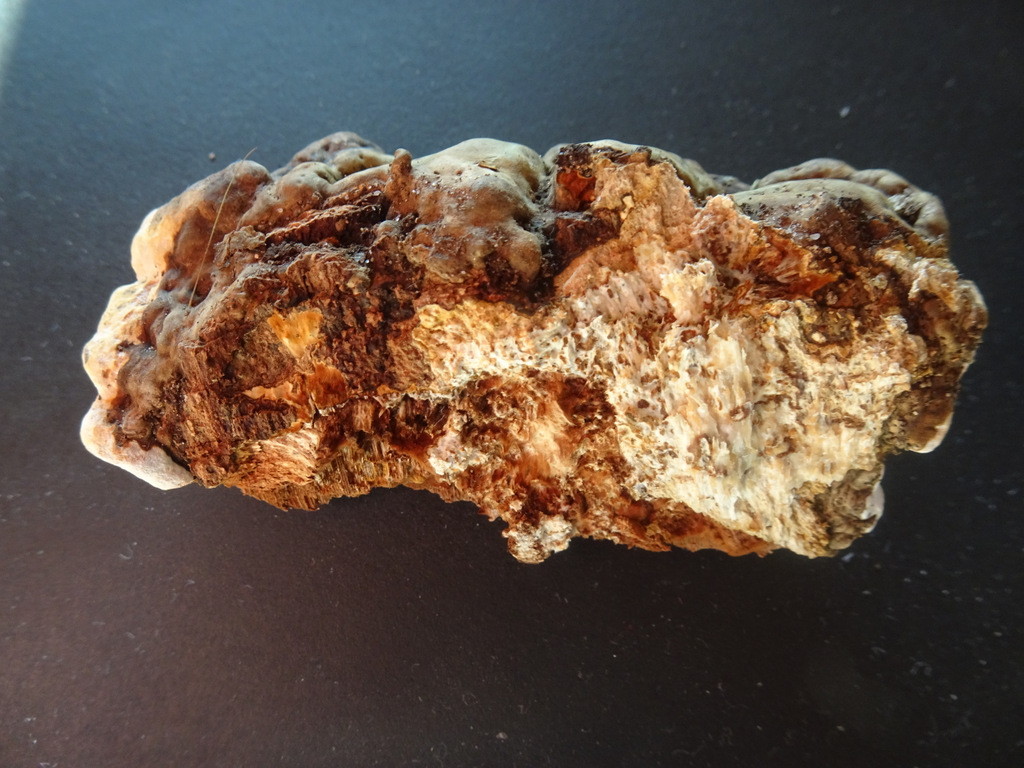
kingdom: Fungi
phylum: Basidiomycota
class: Agaricomycetes
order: Polyporales
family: Polyporaceae
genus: Ganoderma
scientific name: Ganoderma
